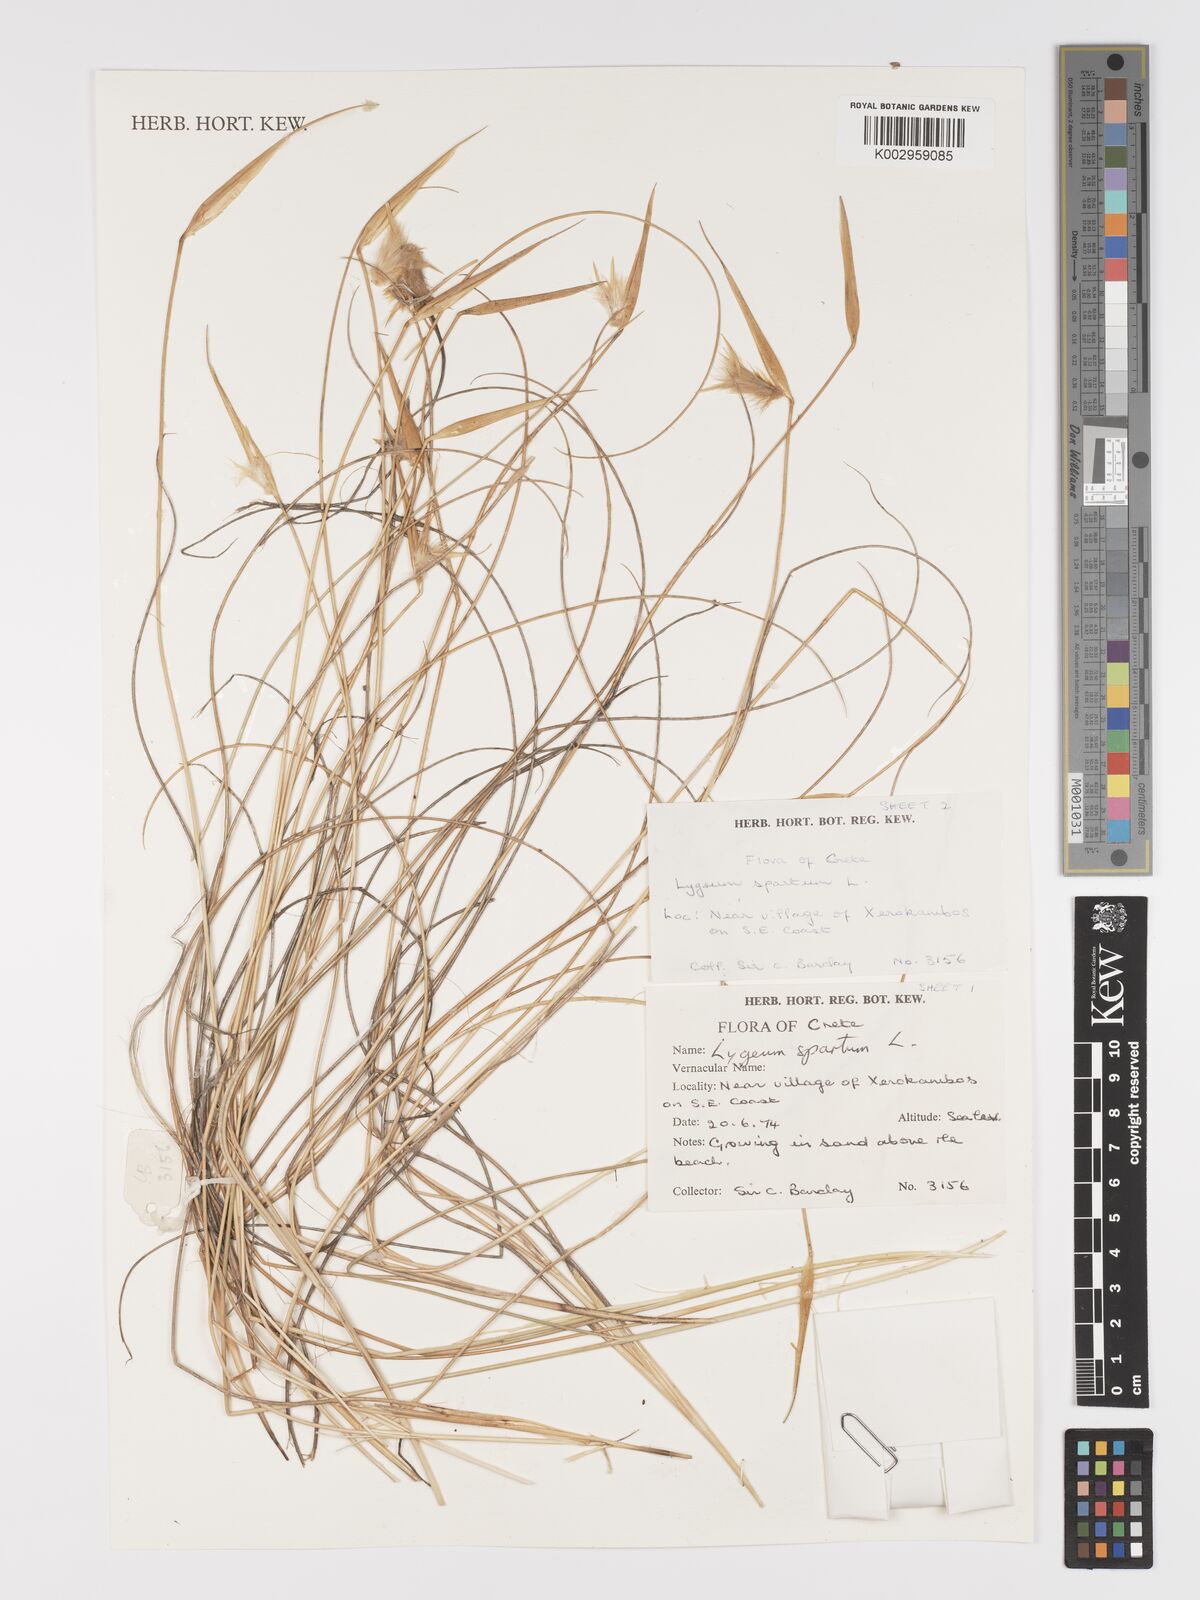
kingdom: Plantae
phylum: Tracheophyta
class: Liliopsida
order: Poales
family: Poaceae
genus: Lygeum
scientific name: Lygeum spartum
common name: Albardine
